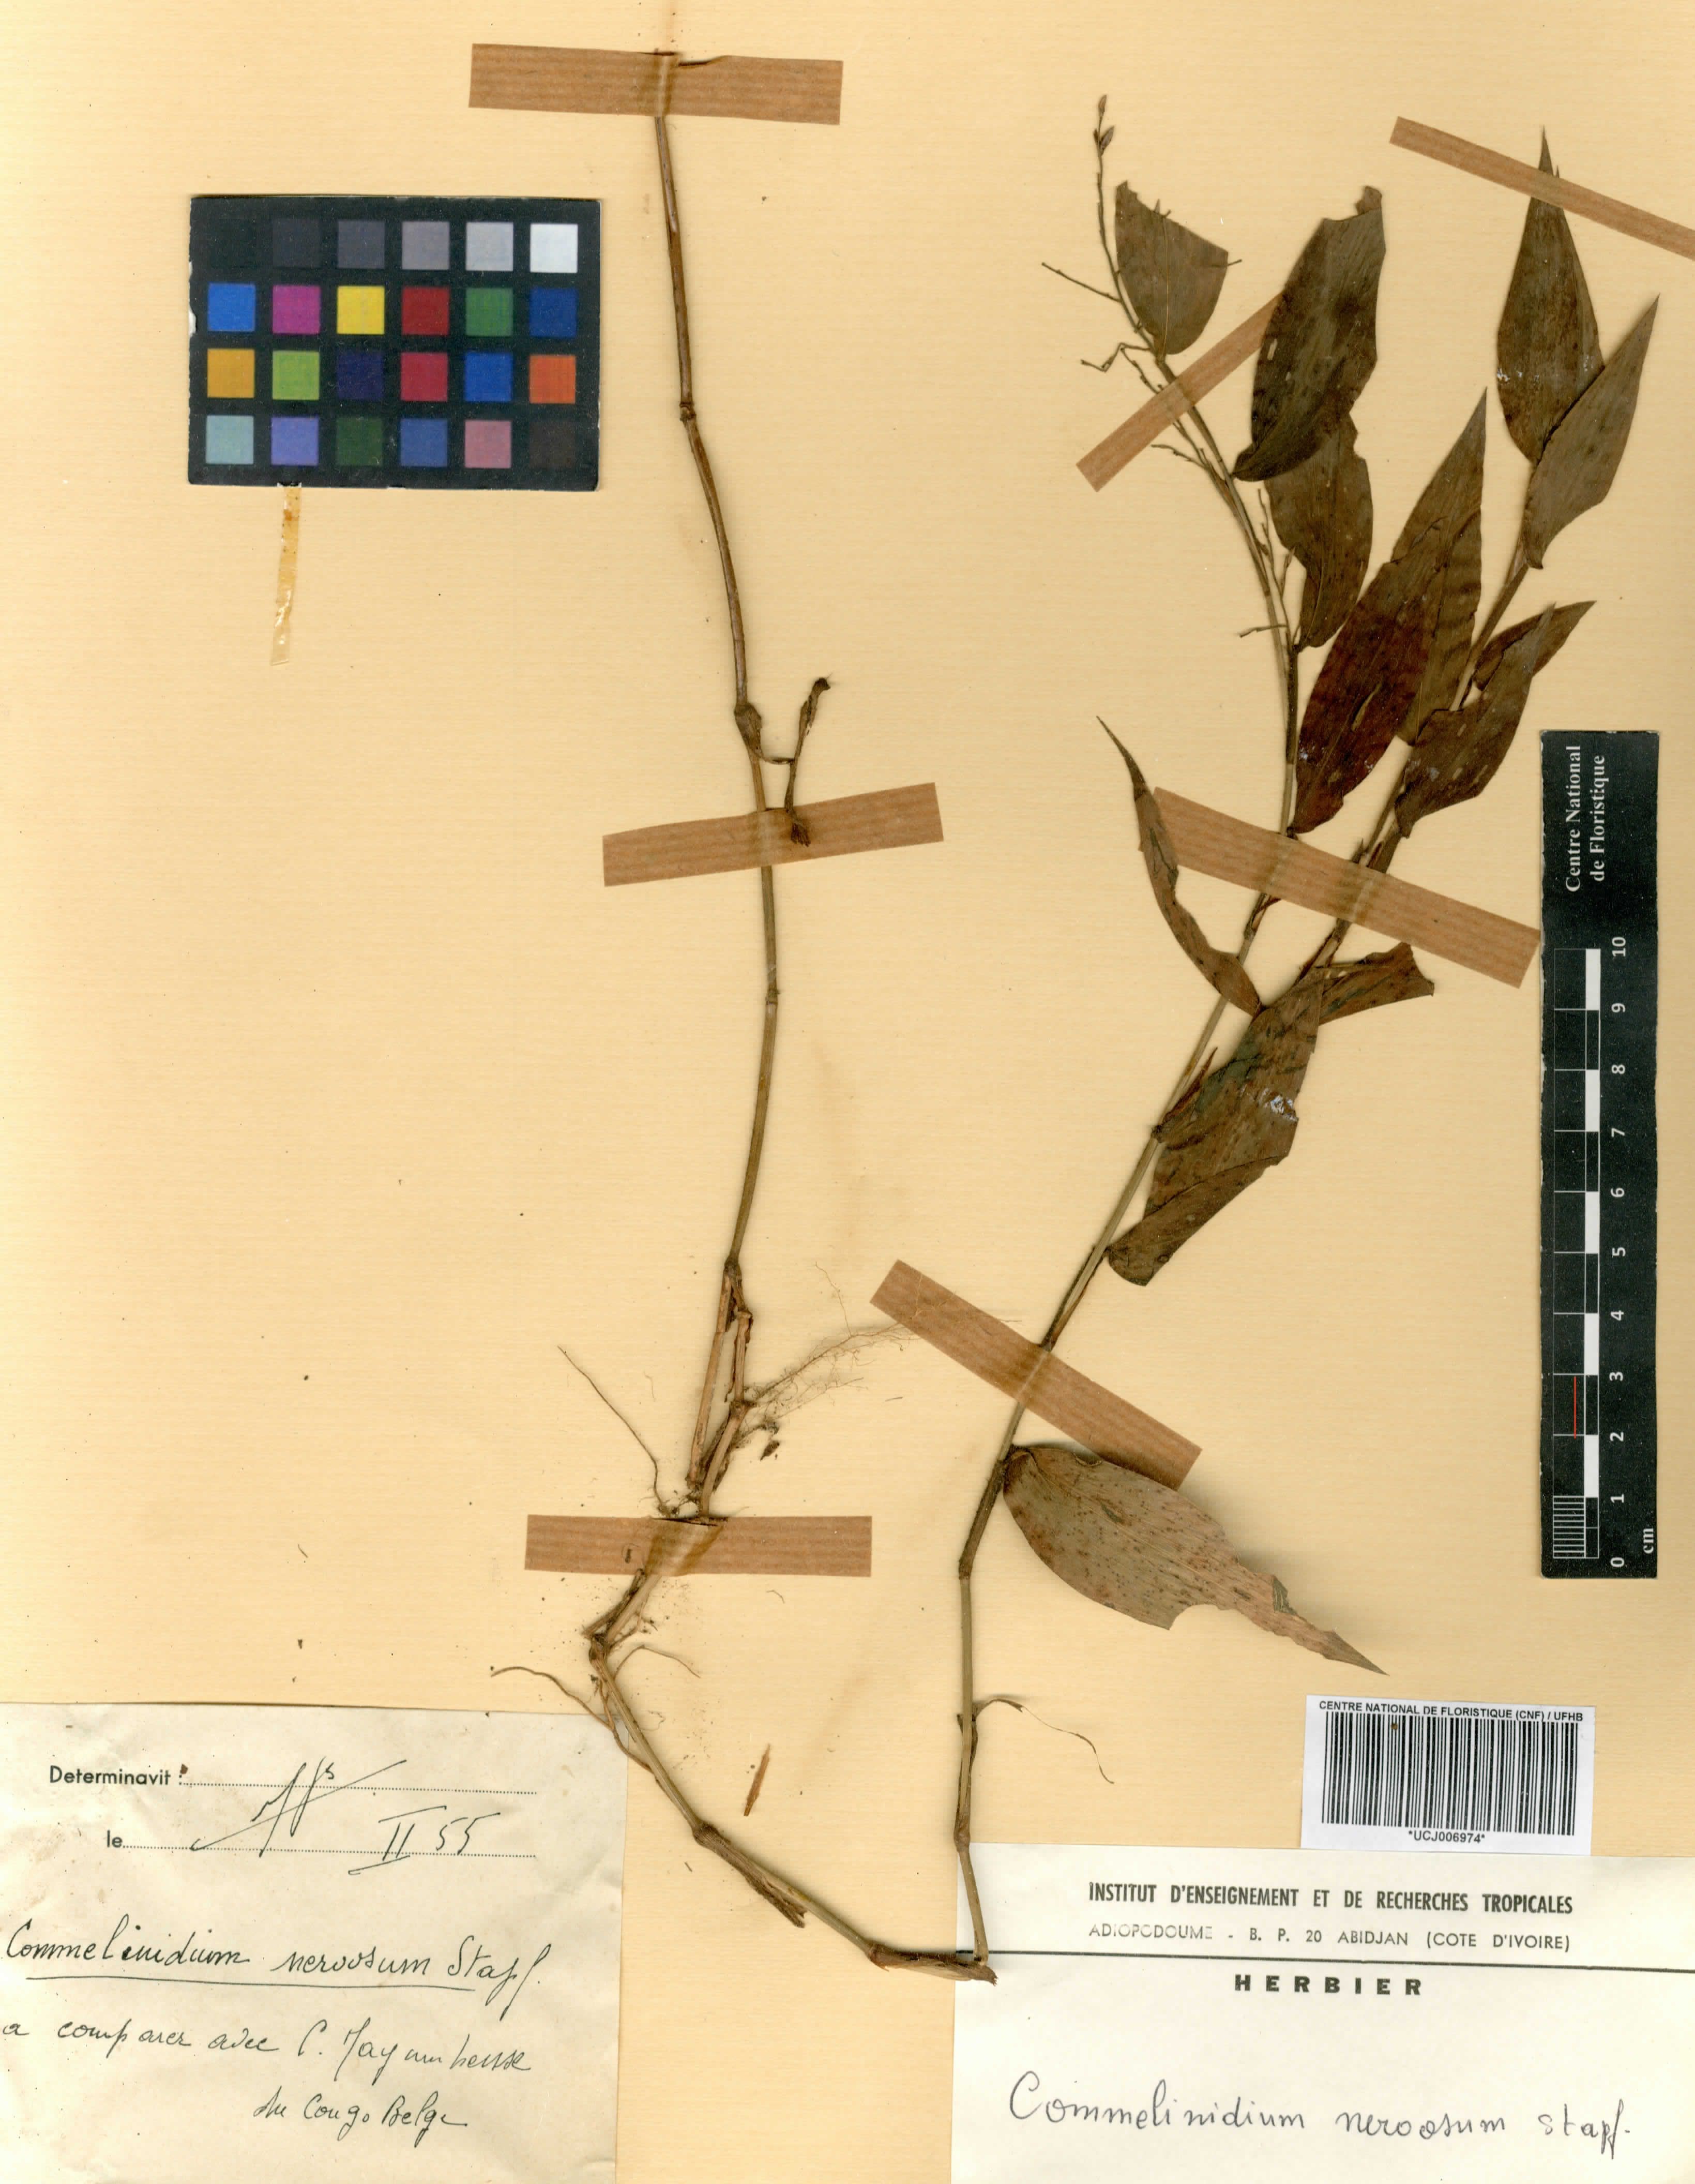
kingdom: Plantae
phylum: Tracheophyta
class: Liliopsida
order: Poales
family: Poaceae
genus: Acroceras
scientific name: Acroceras gabunense
